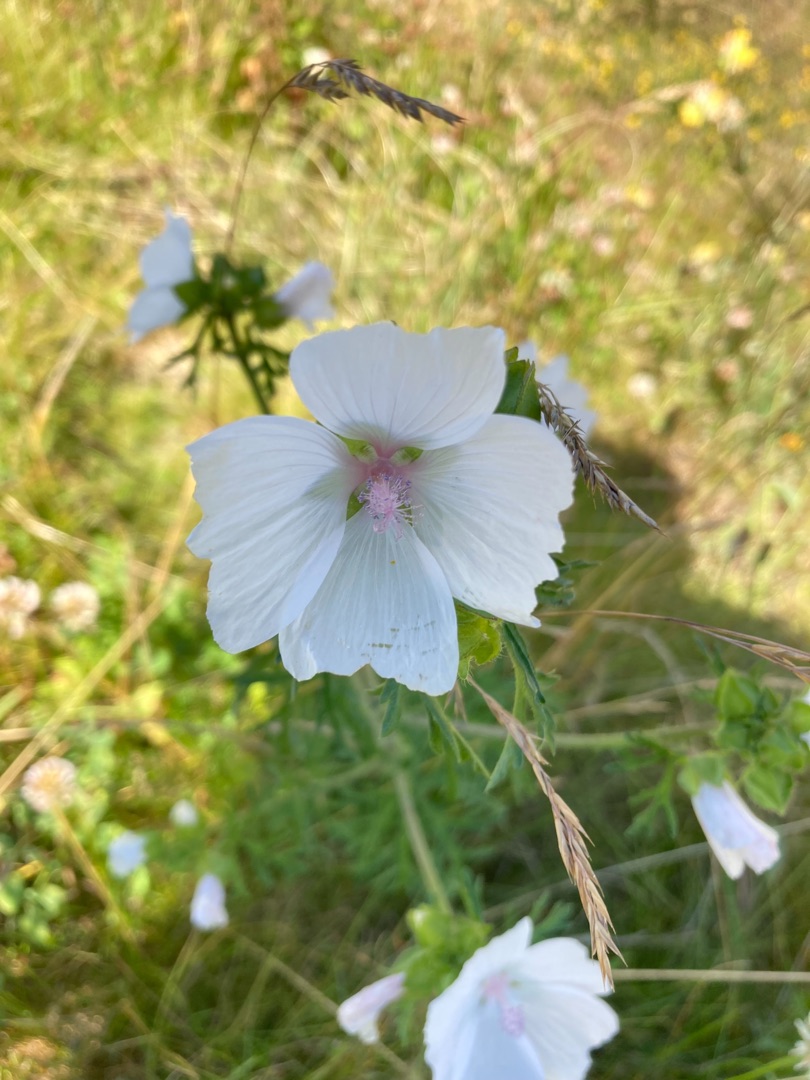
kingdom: Plantae
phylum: Tracheophyta
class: Magnoliopsida
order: Malvales
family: Malvaceae
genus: Malva
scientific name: Malva
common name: Katostslægten
